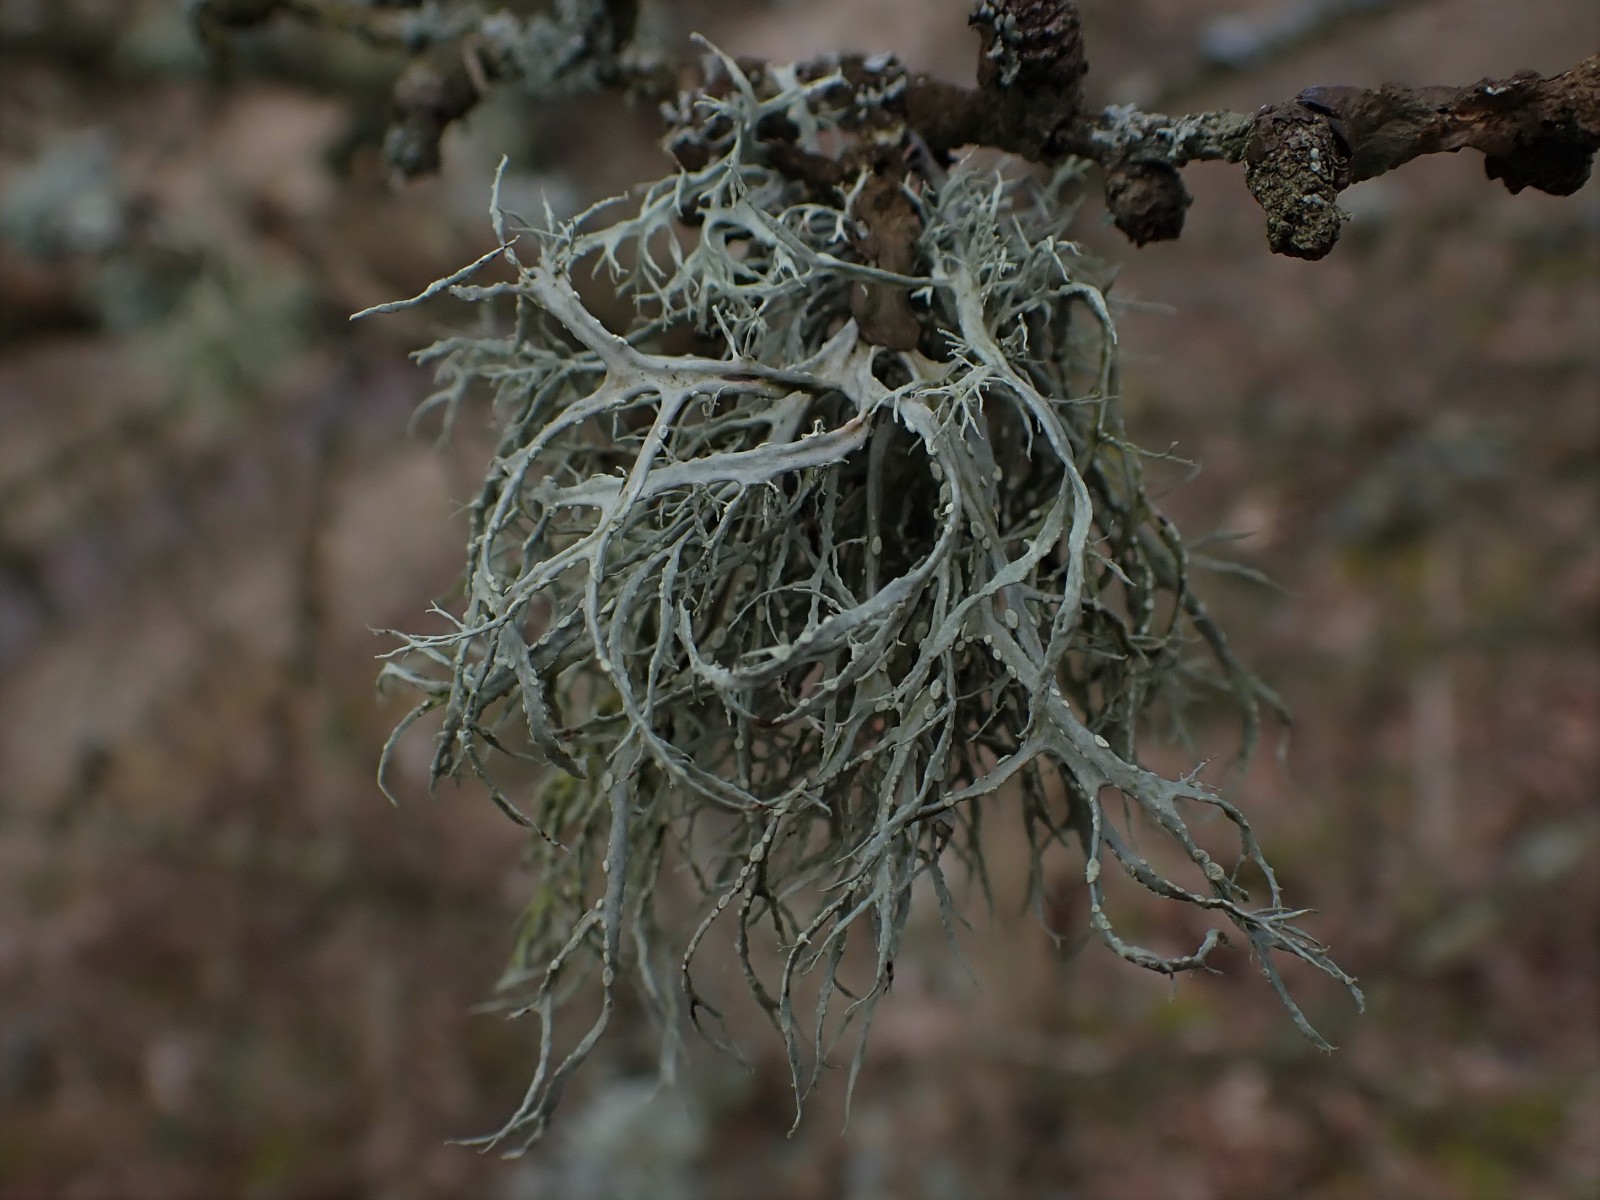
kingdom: Fungi
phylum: Ascomycota
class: Lecanoromycetes
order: Lecanorales
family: Ramalinaceae
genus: Ramalina
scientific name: Ramalina farinacea
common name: melet grenlav
